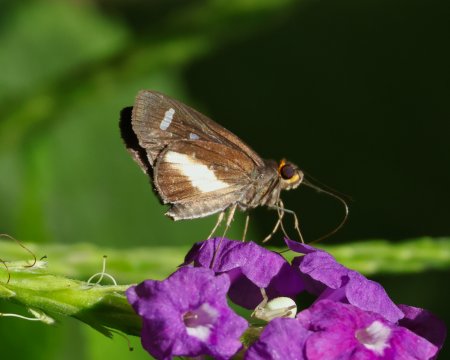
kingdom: Animalia
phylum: Arthropoda
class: Insecta
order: Lepidoptera
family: Hesperiidae
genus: Cobalus
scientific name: Cobalus calvina
